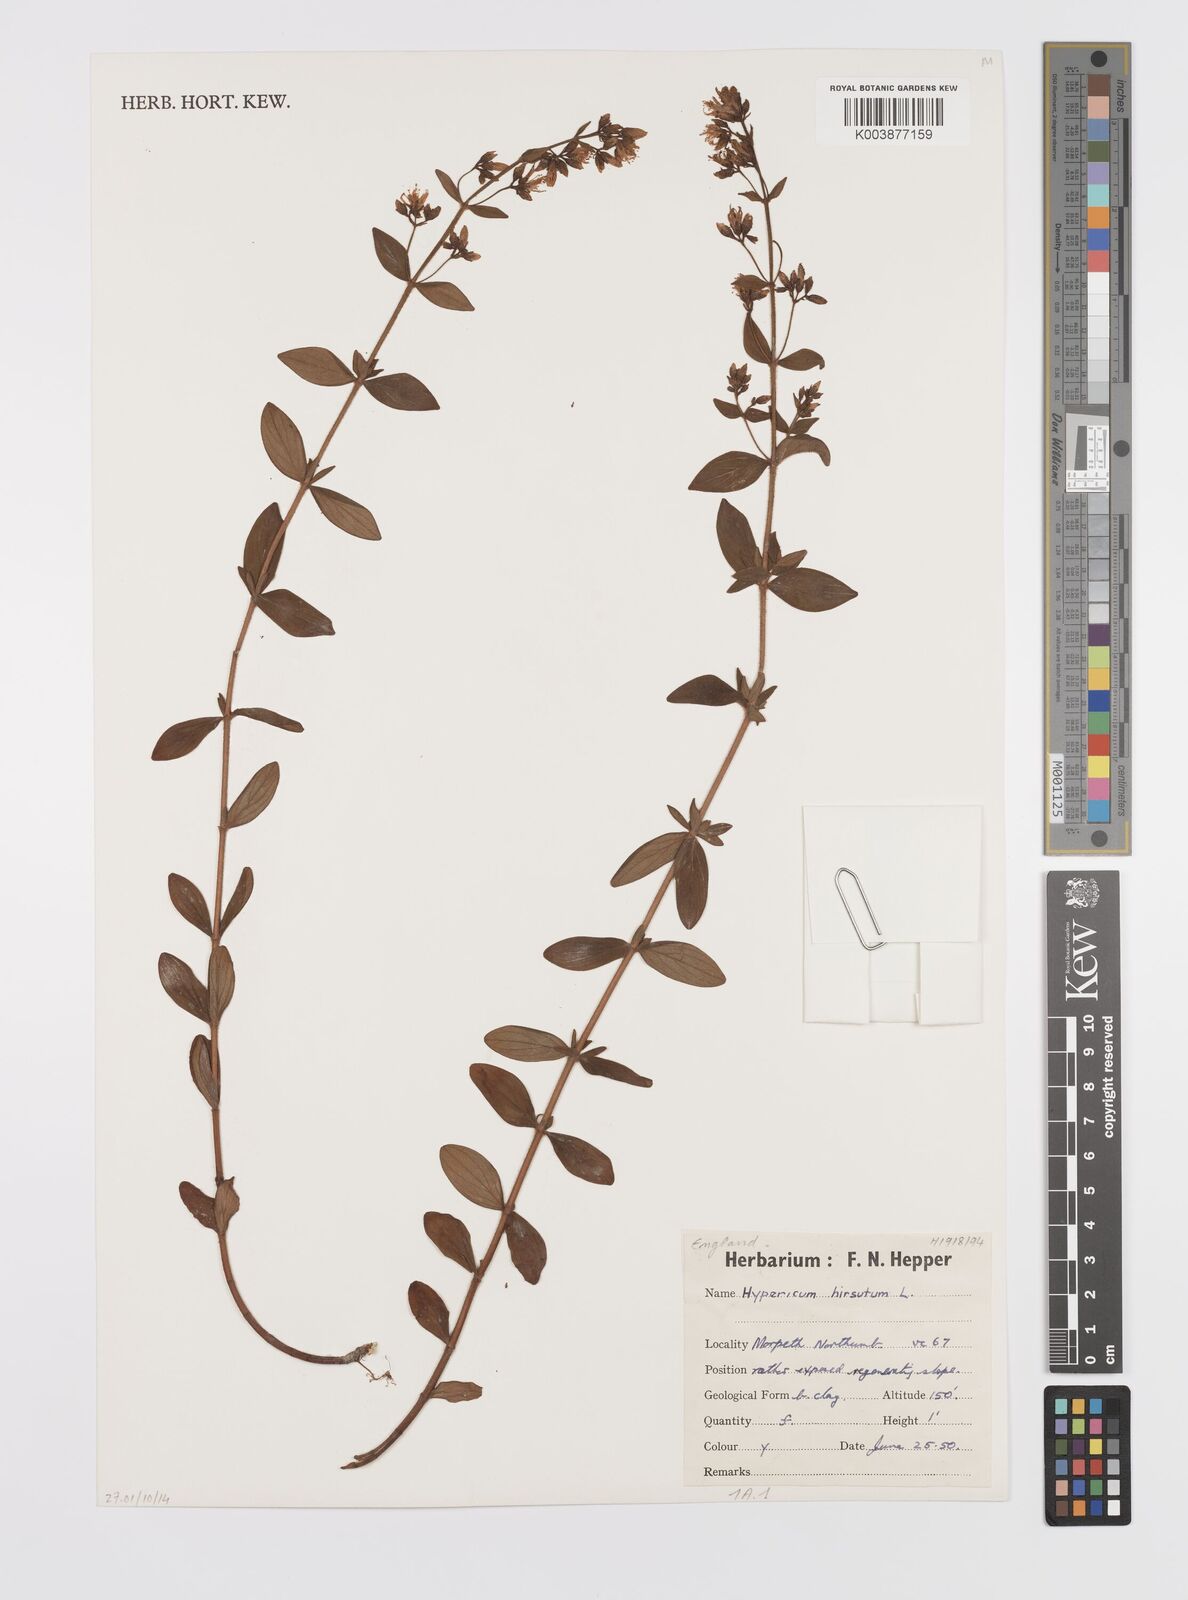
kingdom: Plantae
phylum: Tracheophyta
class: Magnoliopsida
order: Malpighiales
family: Hypericaceae
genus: Hypericum
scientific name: Hypericum hirsutum
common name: Hairy st. john's-wort
